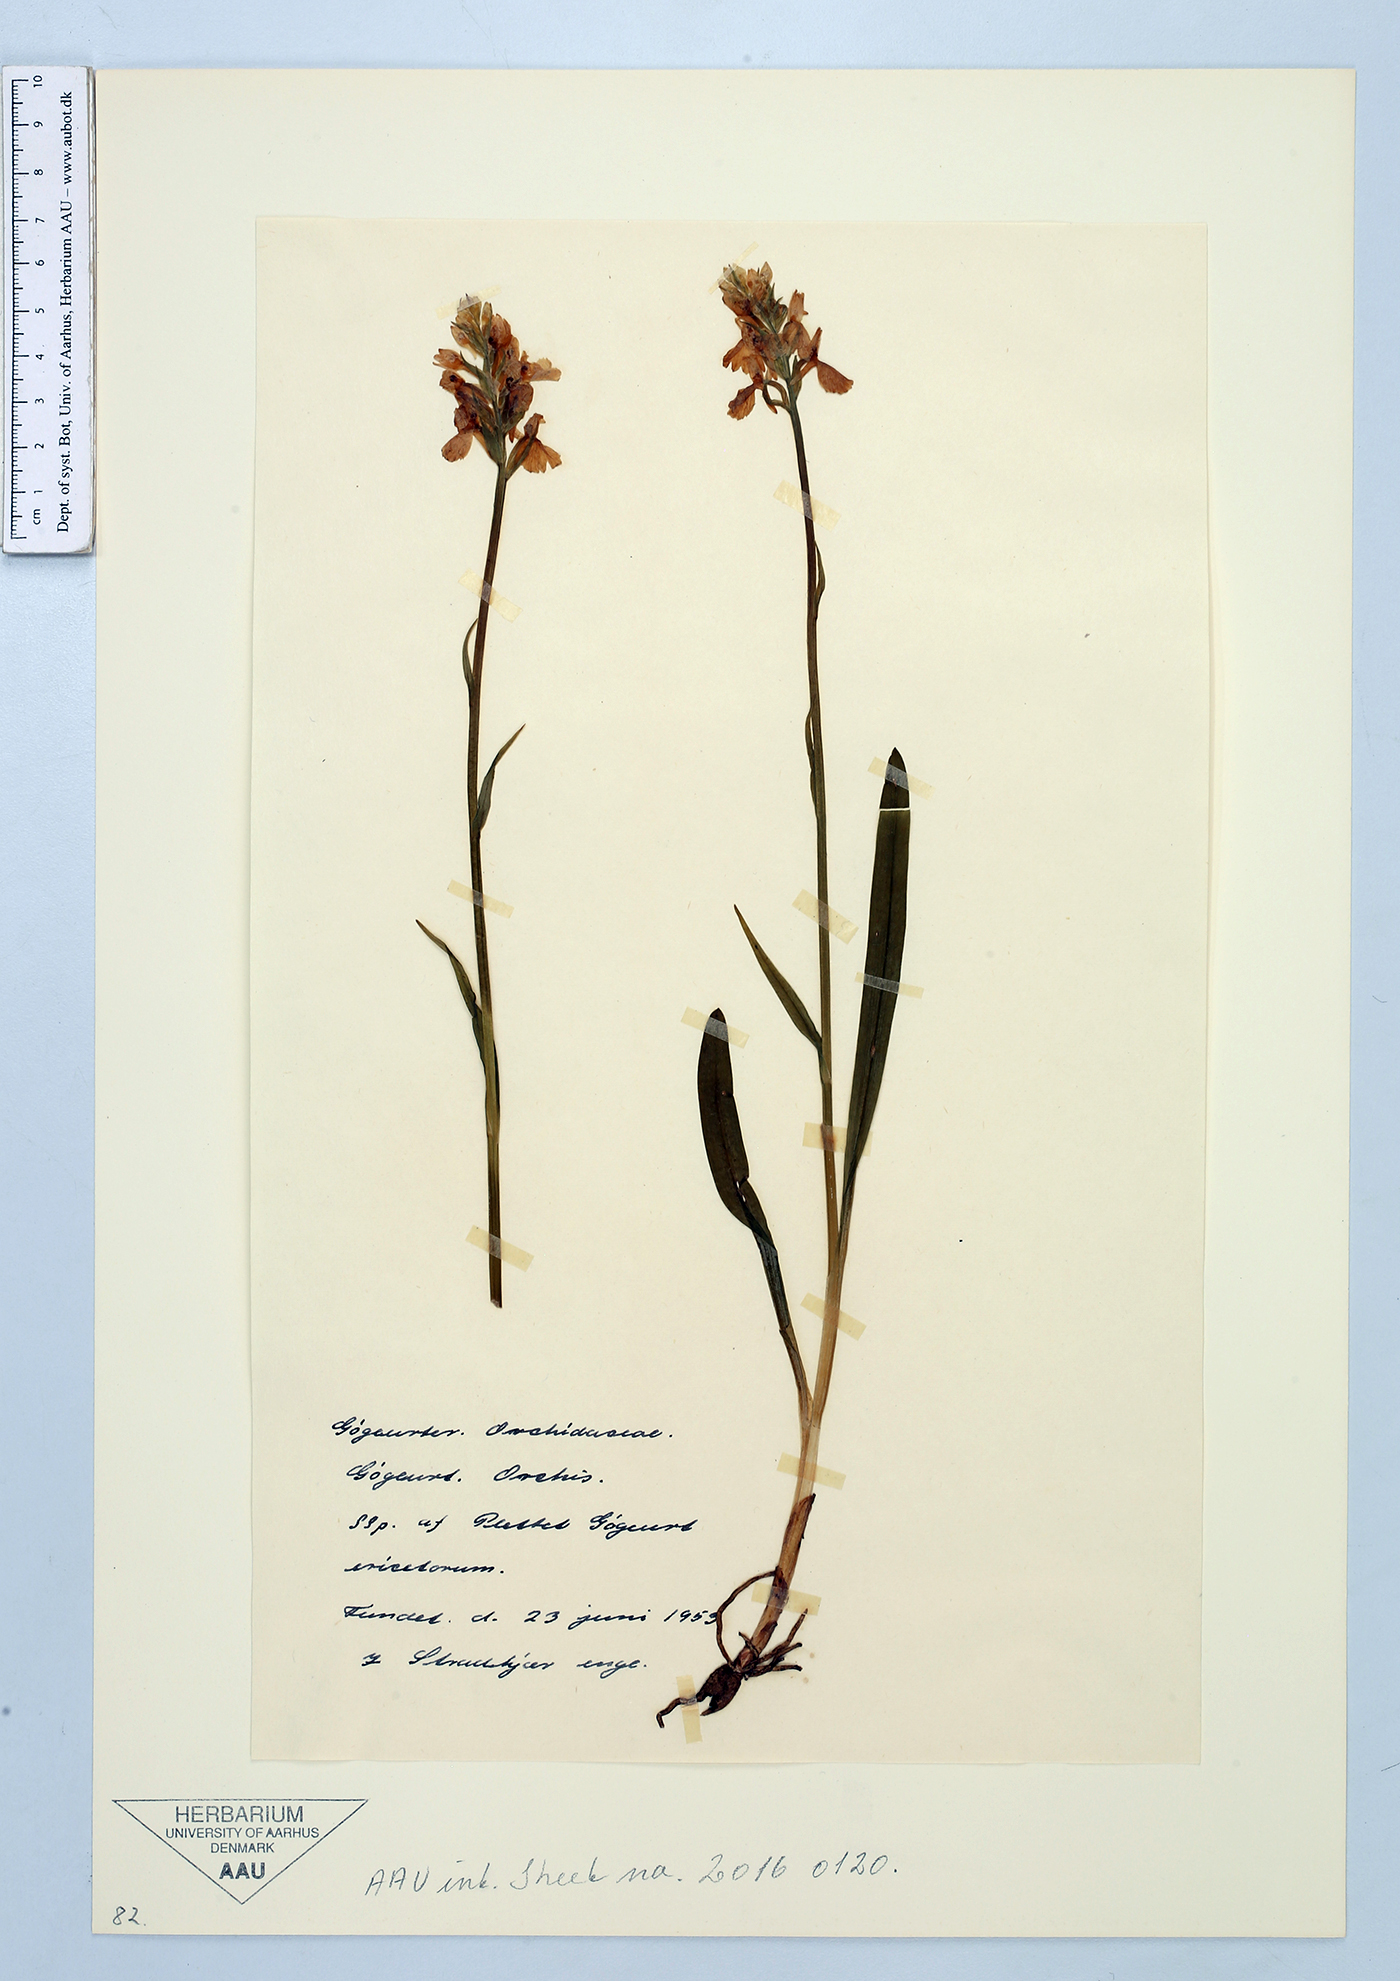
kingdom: Plantae
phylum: Tracheophyta
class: Liliopsida
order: Asparagales
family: Orchidaceae
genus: Dactylorhiza
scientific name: Dactylorhiza maculata
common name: Heath spotted-orchid
